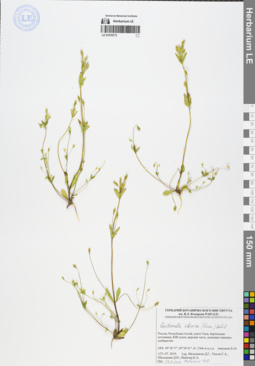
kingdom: Plantae
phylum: Tracheophyta
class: Magnoliopsida
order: Gentianales
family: Gentianaceae
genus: Gentianella
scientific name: Gentianella sibirica
